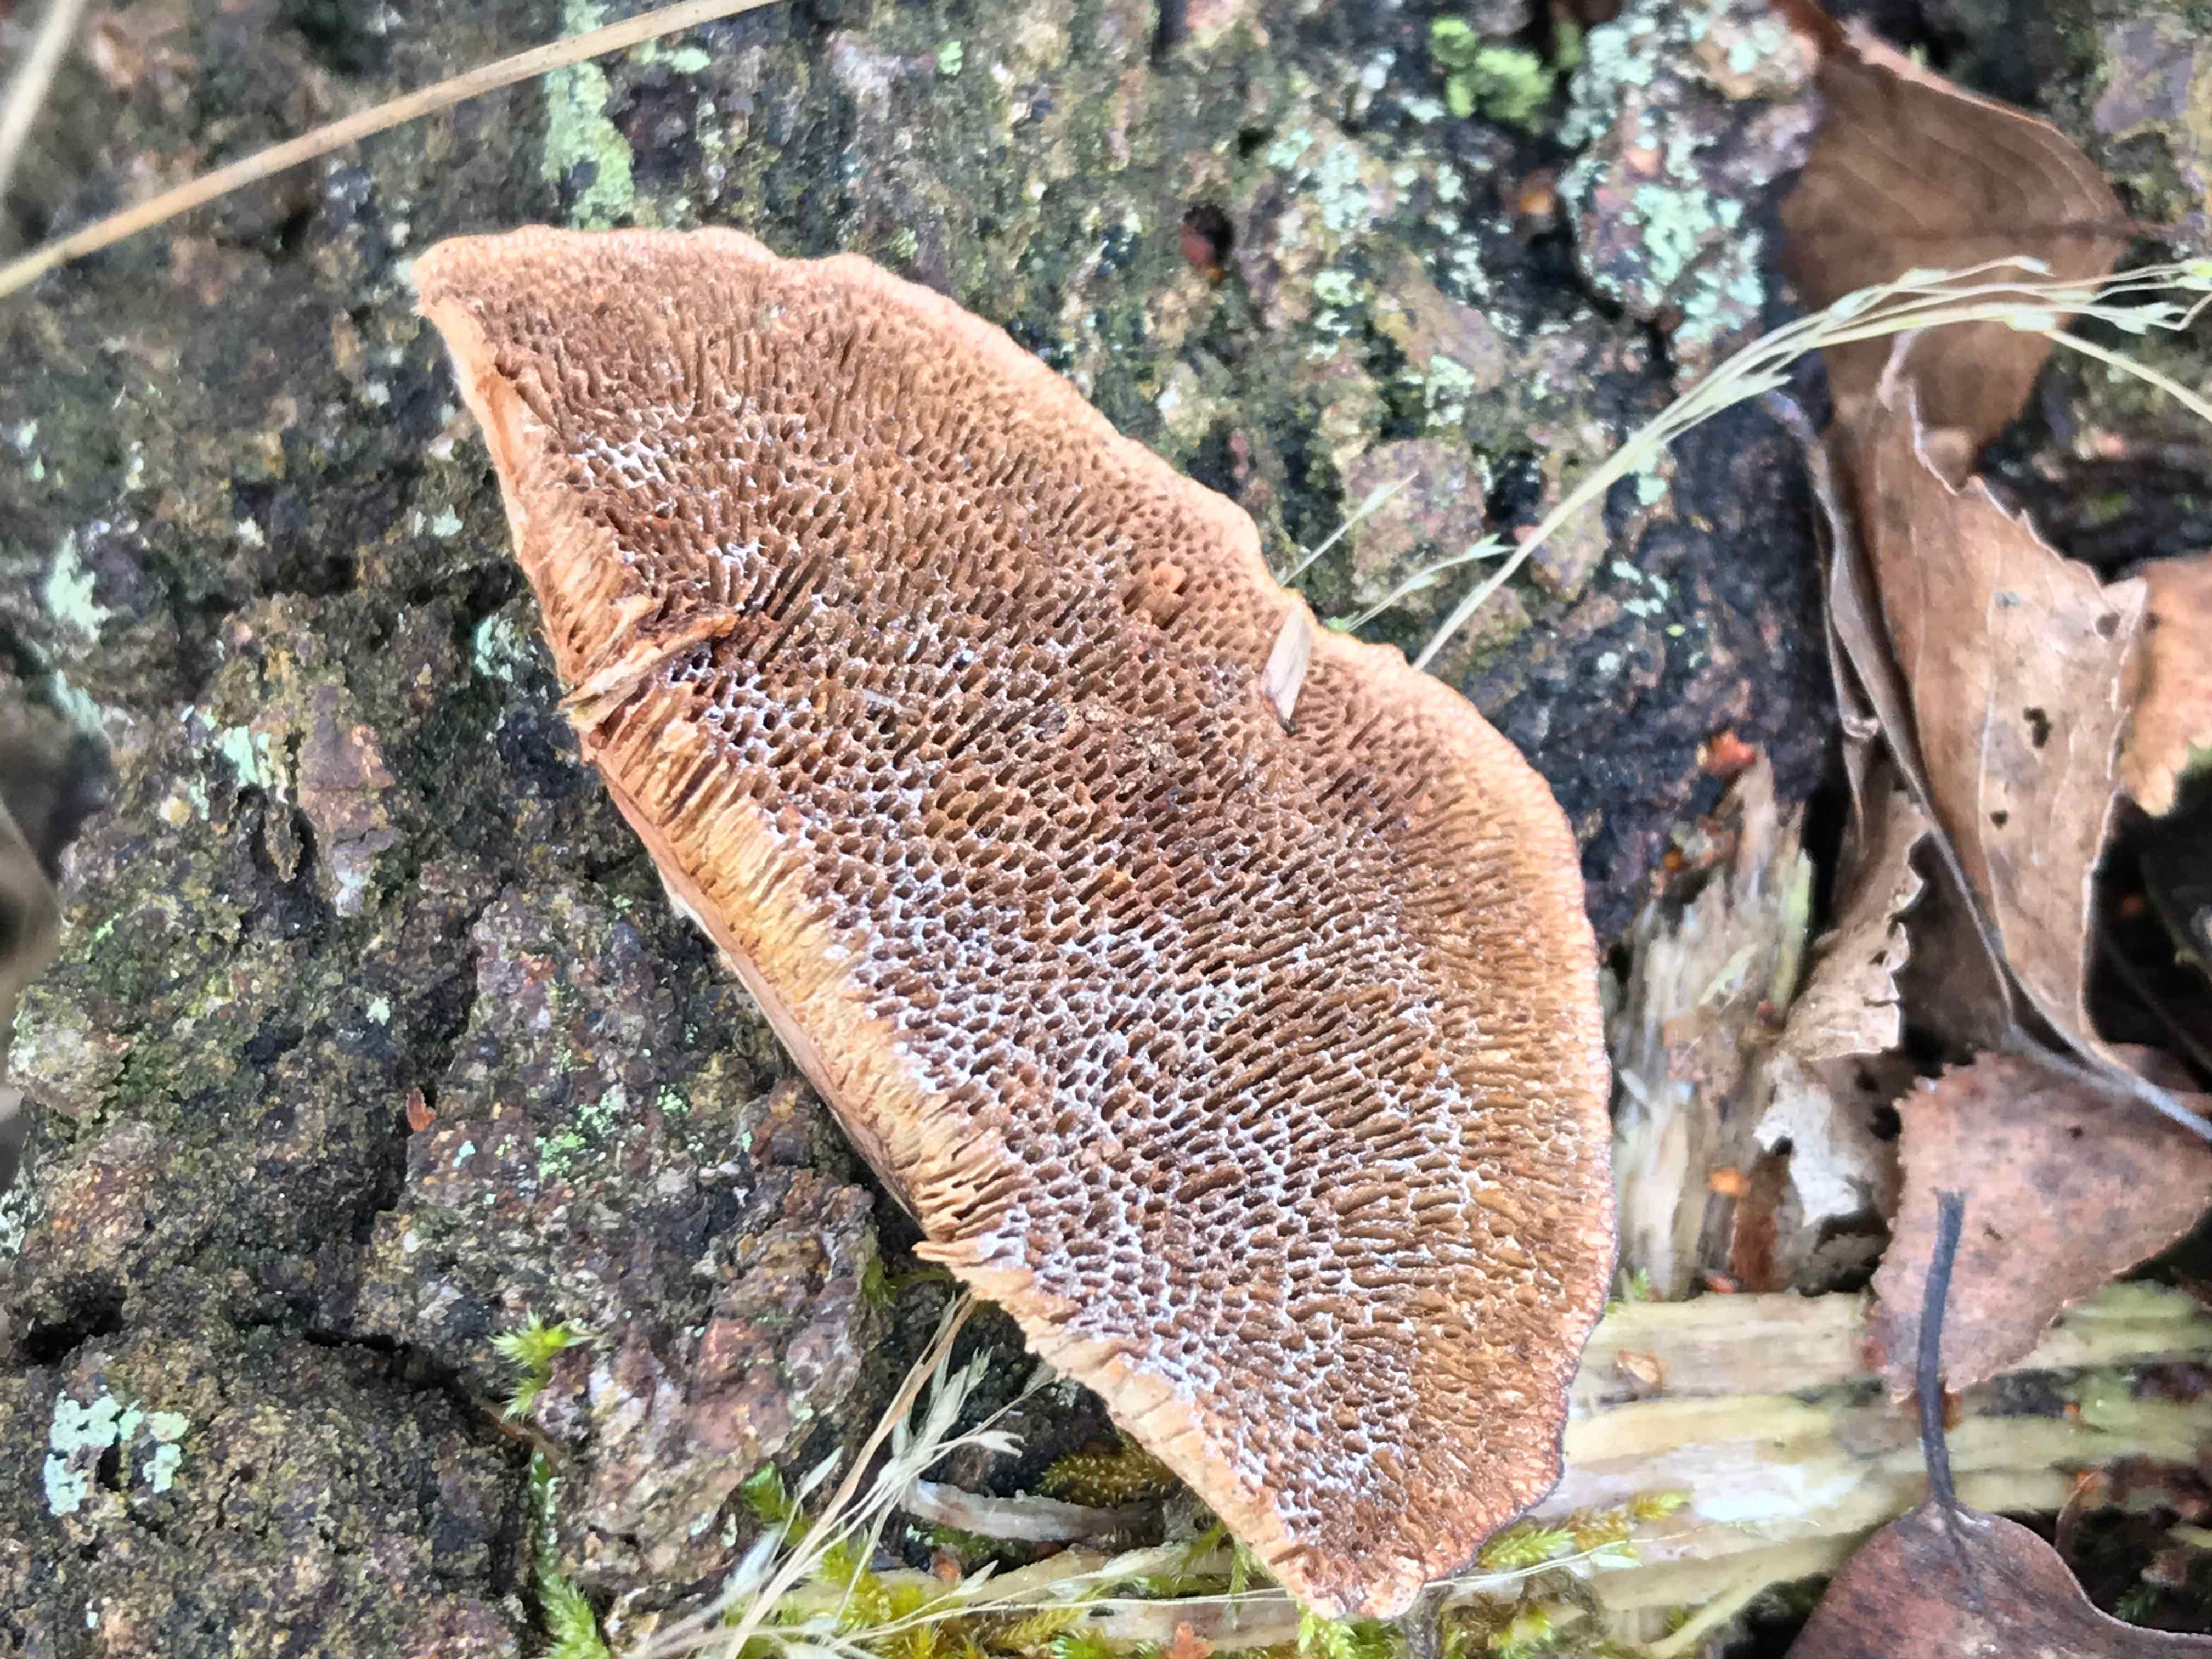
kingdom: Fungi
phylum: Basidiomycota
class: Agaricomycetes
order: Polyporales
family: Polyporaceae
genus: Daedaleopsis
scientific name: Daedaleopsis confragosa
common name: rødmende læderporesvamp
